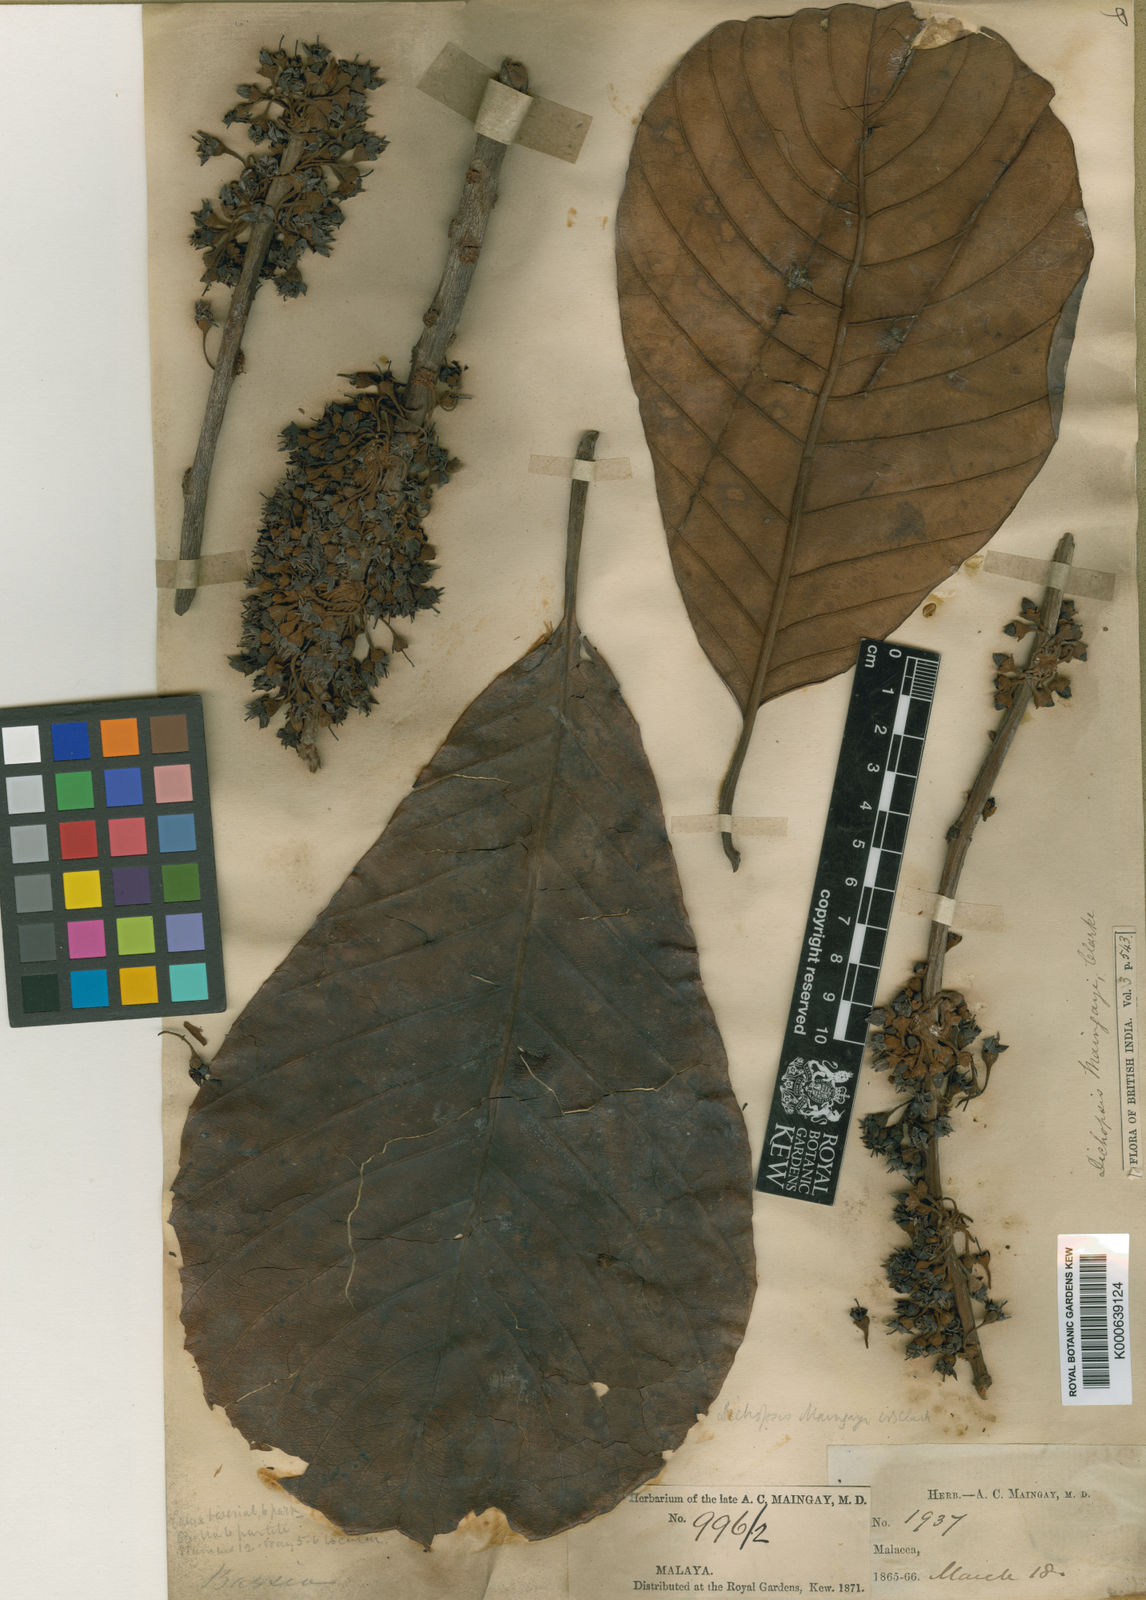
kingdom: Plantae
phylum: Tracheophyta
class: Magnoliopsida
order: Ericales
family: Sapotaceae
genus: Palaquium
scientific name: Palaquium maingayi
